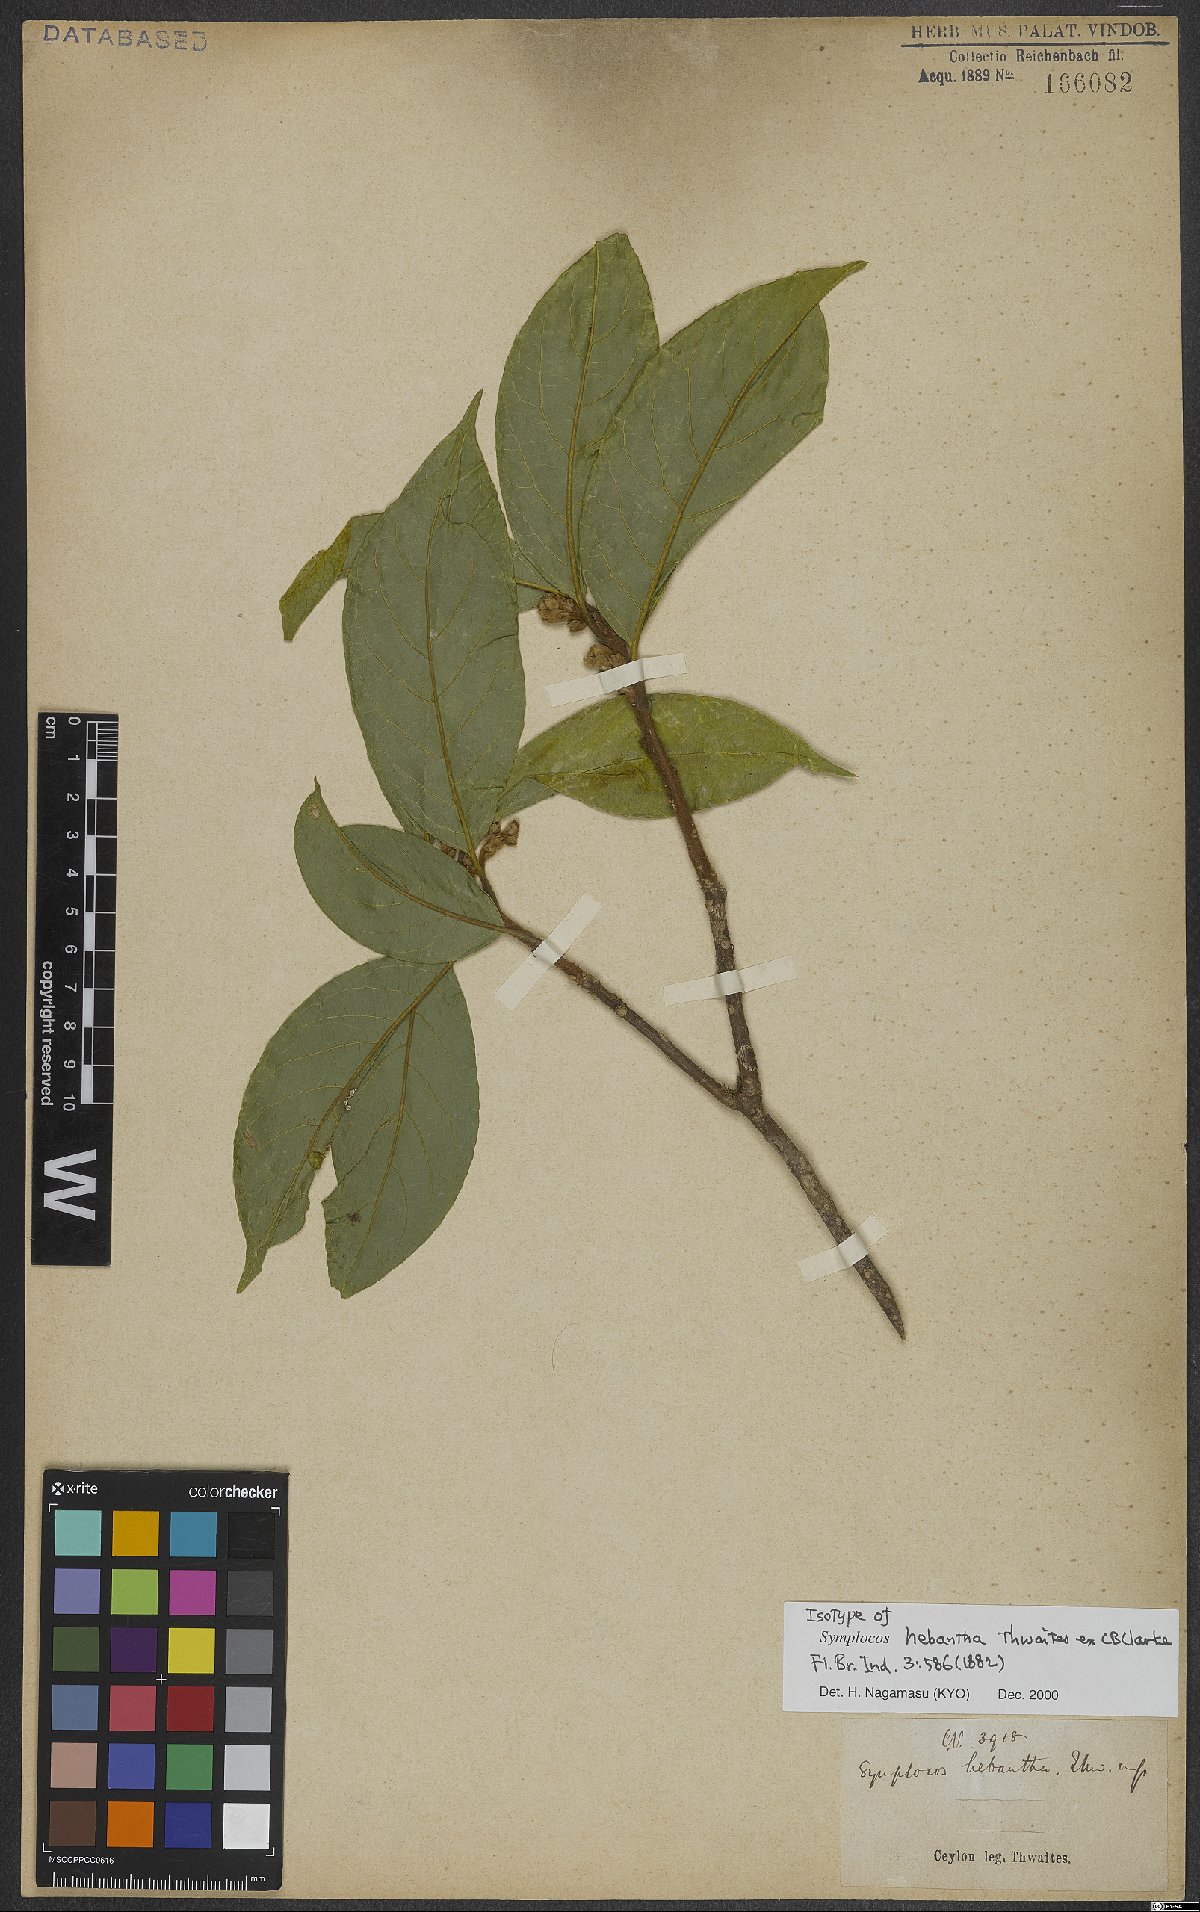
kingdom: Plantae
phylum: Tracheophyta
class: Magnoliopsida
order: Ericales
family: Symplocaceae
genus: Symplocos
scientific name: Symplocos kurgensis
